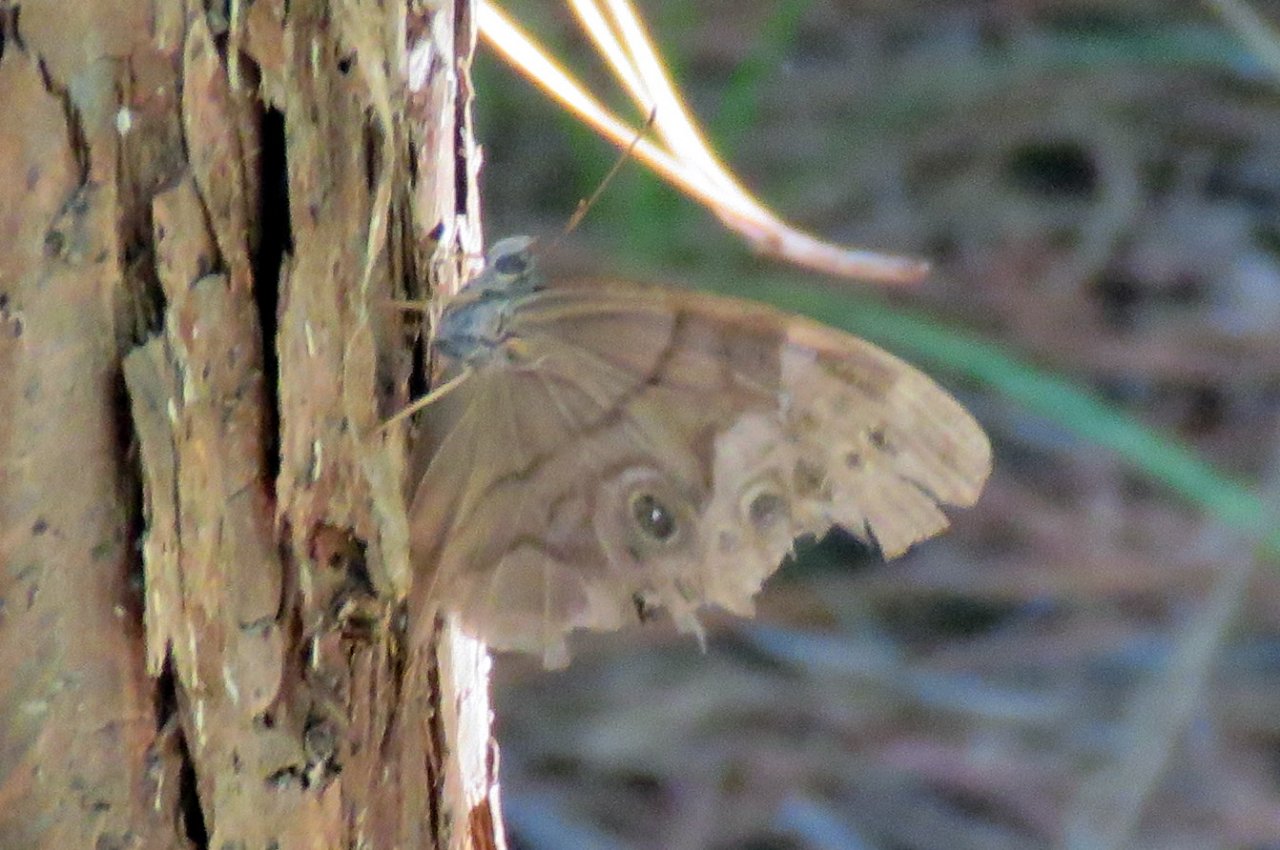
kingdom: Animalia
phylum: Arthropoda
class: Insecta
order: Lepidoptera
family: Nymphalidae
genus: Enodia
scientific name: Enodia portlandia
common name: Southern Pearly Eye
